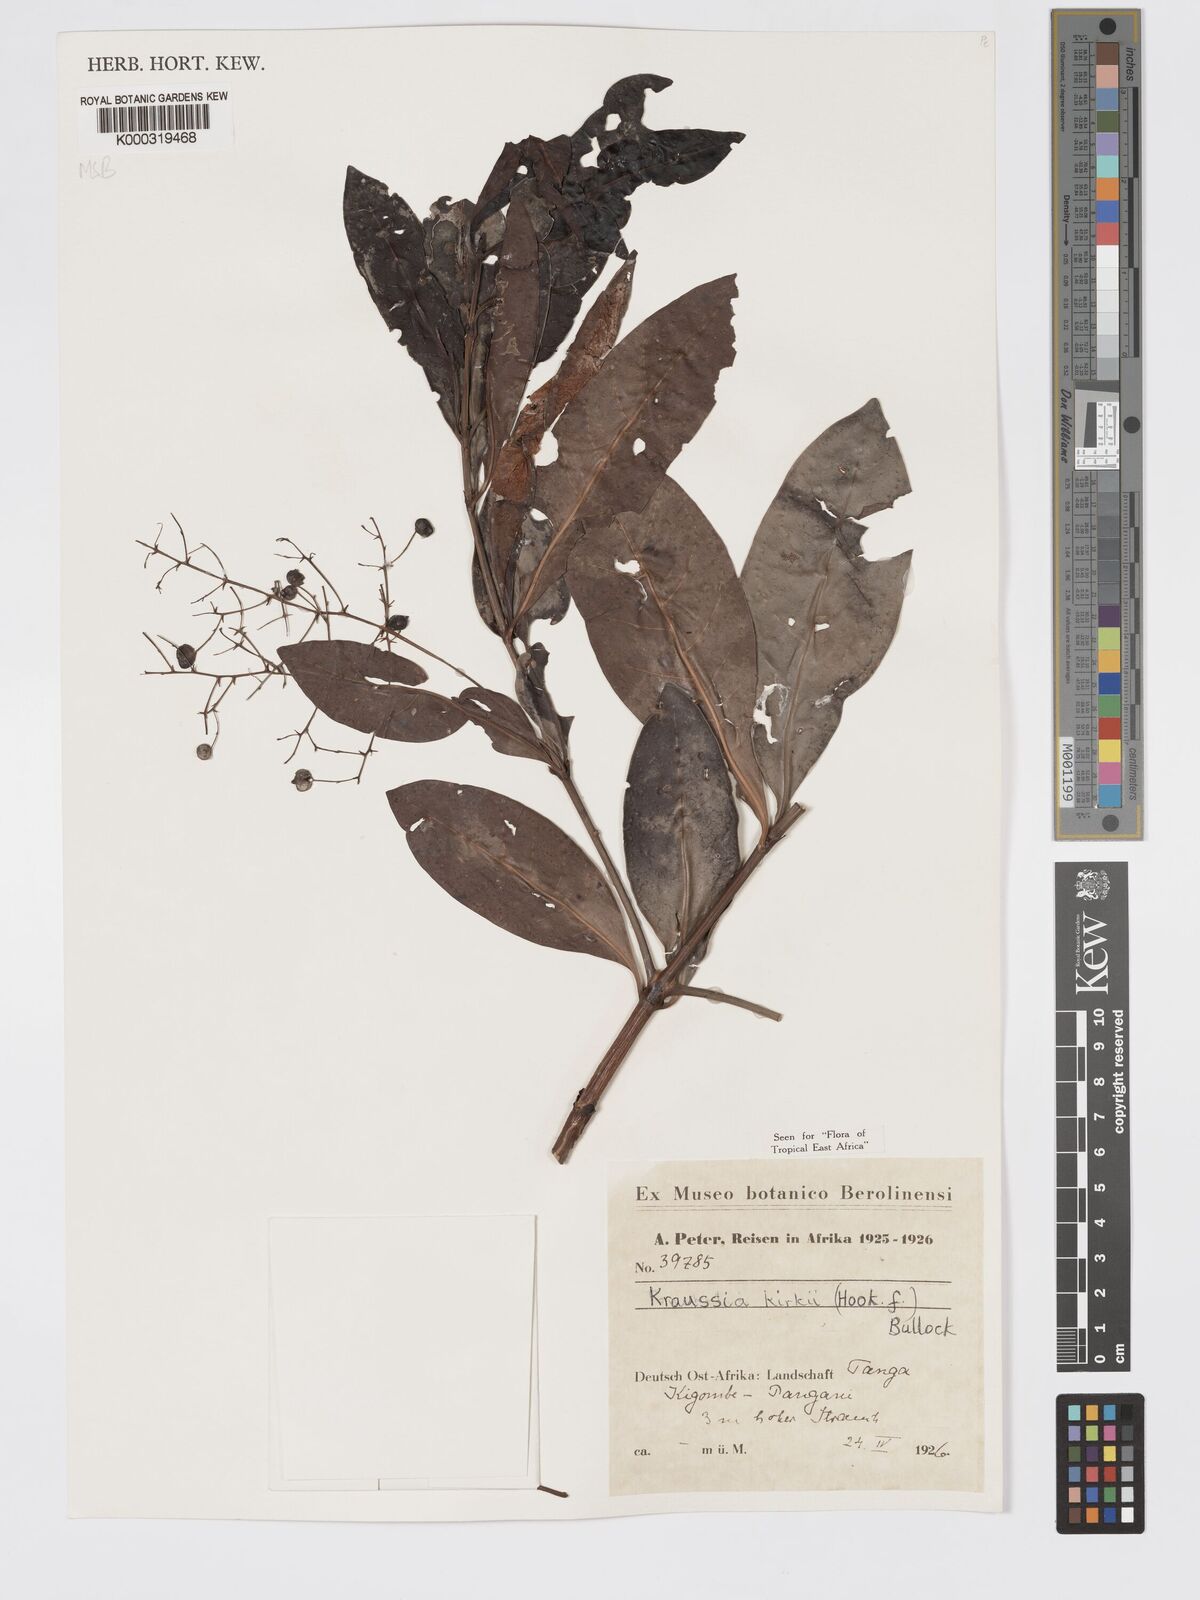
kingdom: Plantae
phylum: Tracheophyta
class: Magnoliopsida
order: Gentianales
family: Rubiaceae
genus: Kraussia
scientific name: Kraussia kirkii
